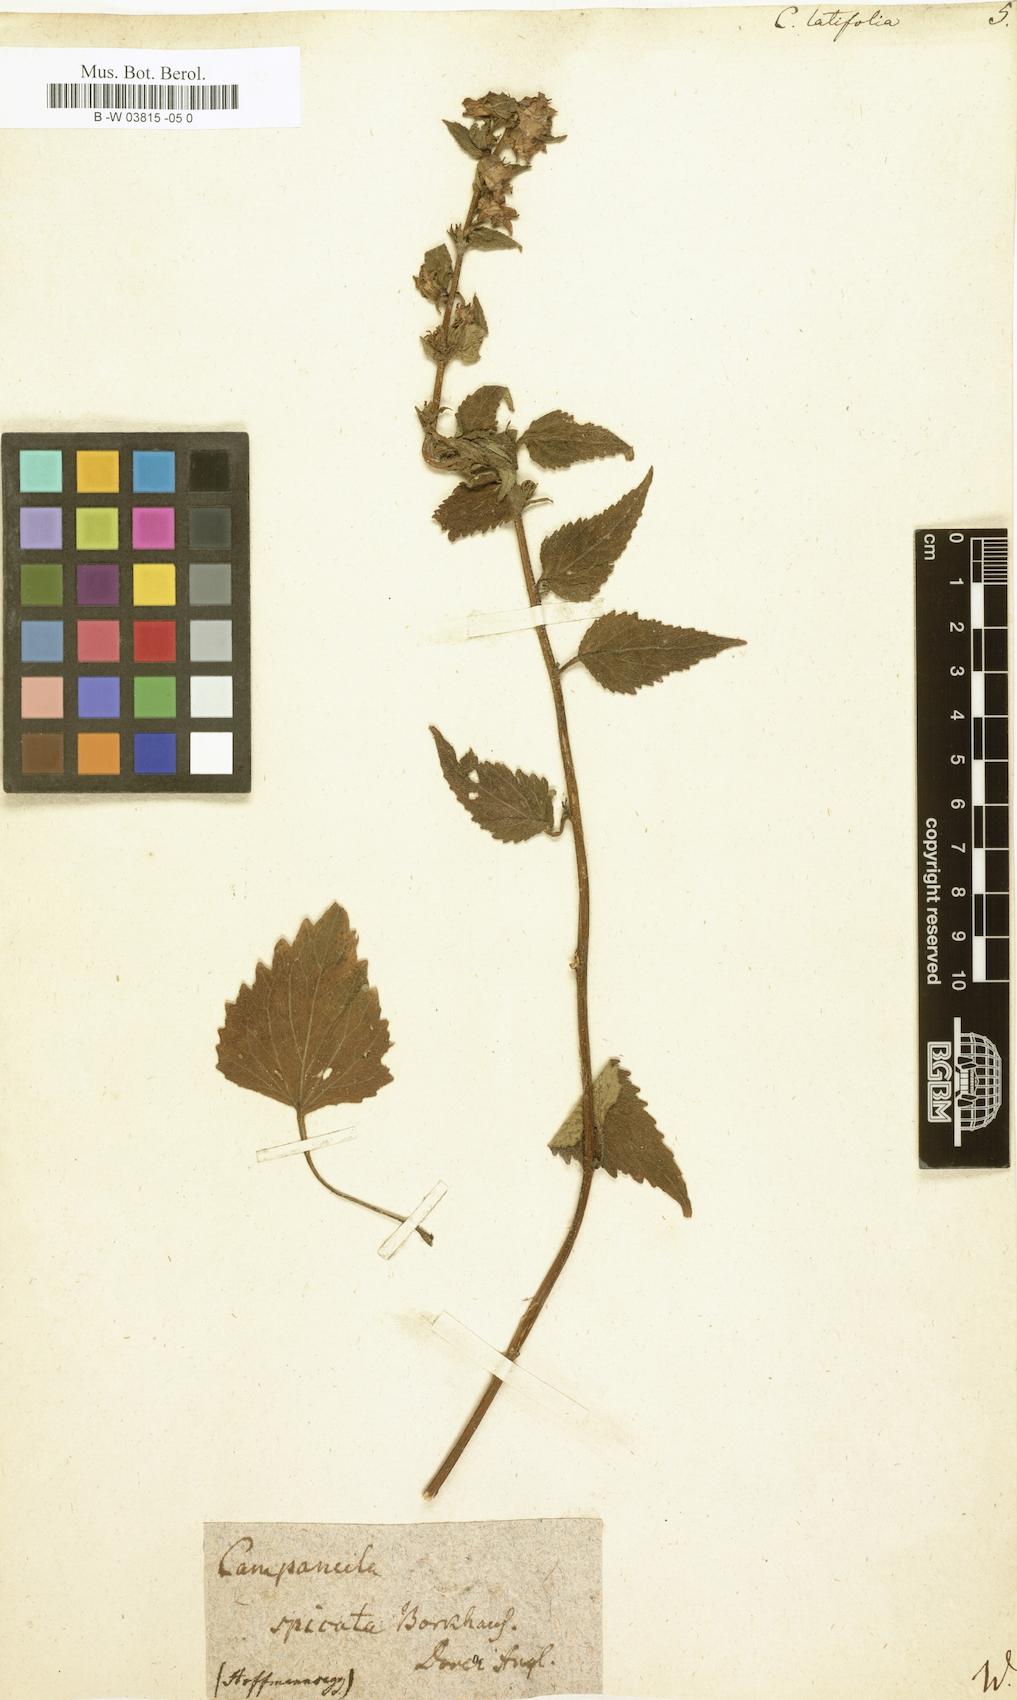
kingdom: Plantae
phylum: Tracheophyta
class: Magnoliopsida
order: Asterales
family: Campanulaceae
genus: Campanula
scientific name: Campanula latifolia
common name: Giant bellflower
